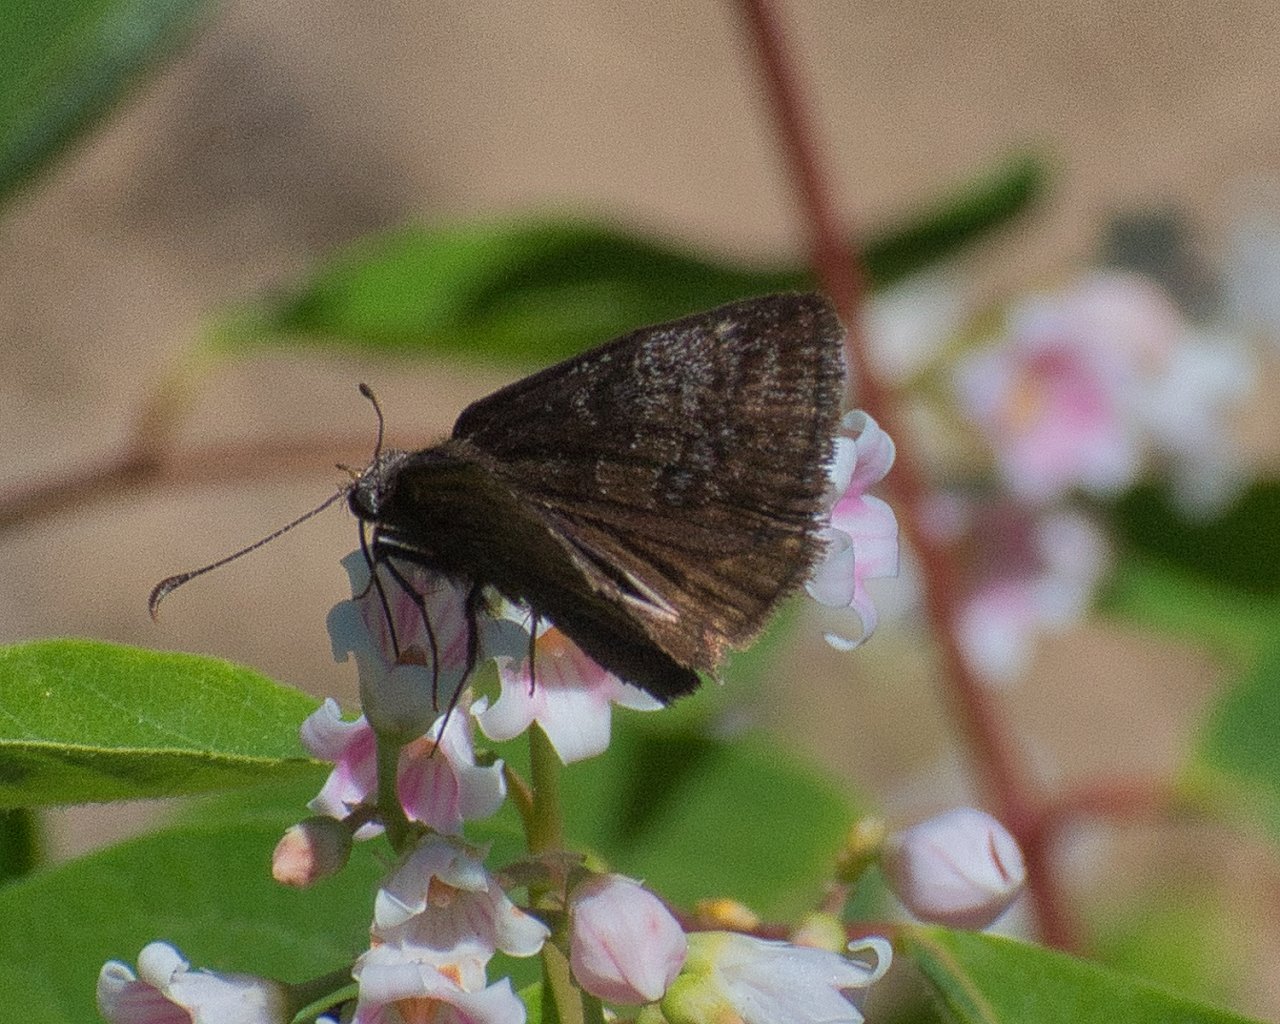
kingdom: Animalia
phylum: Arthropoda
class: Insecta
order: Lepidoptera
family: Hesperiidae
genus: Erynnis
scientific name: Erynnis icelus
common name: Dreamy Duskywing
